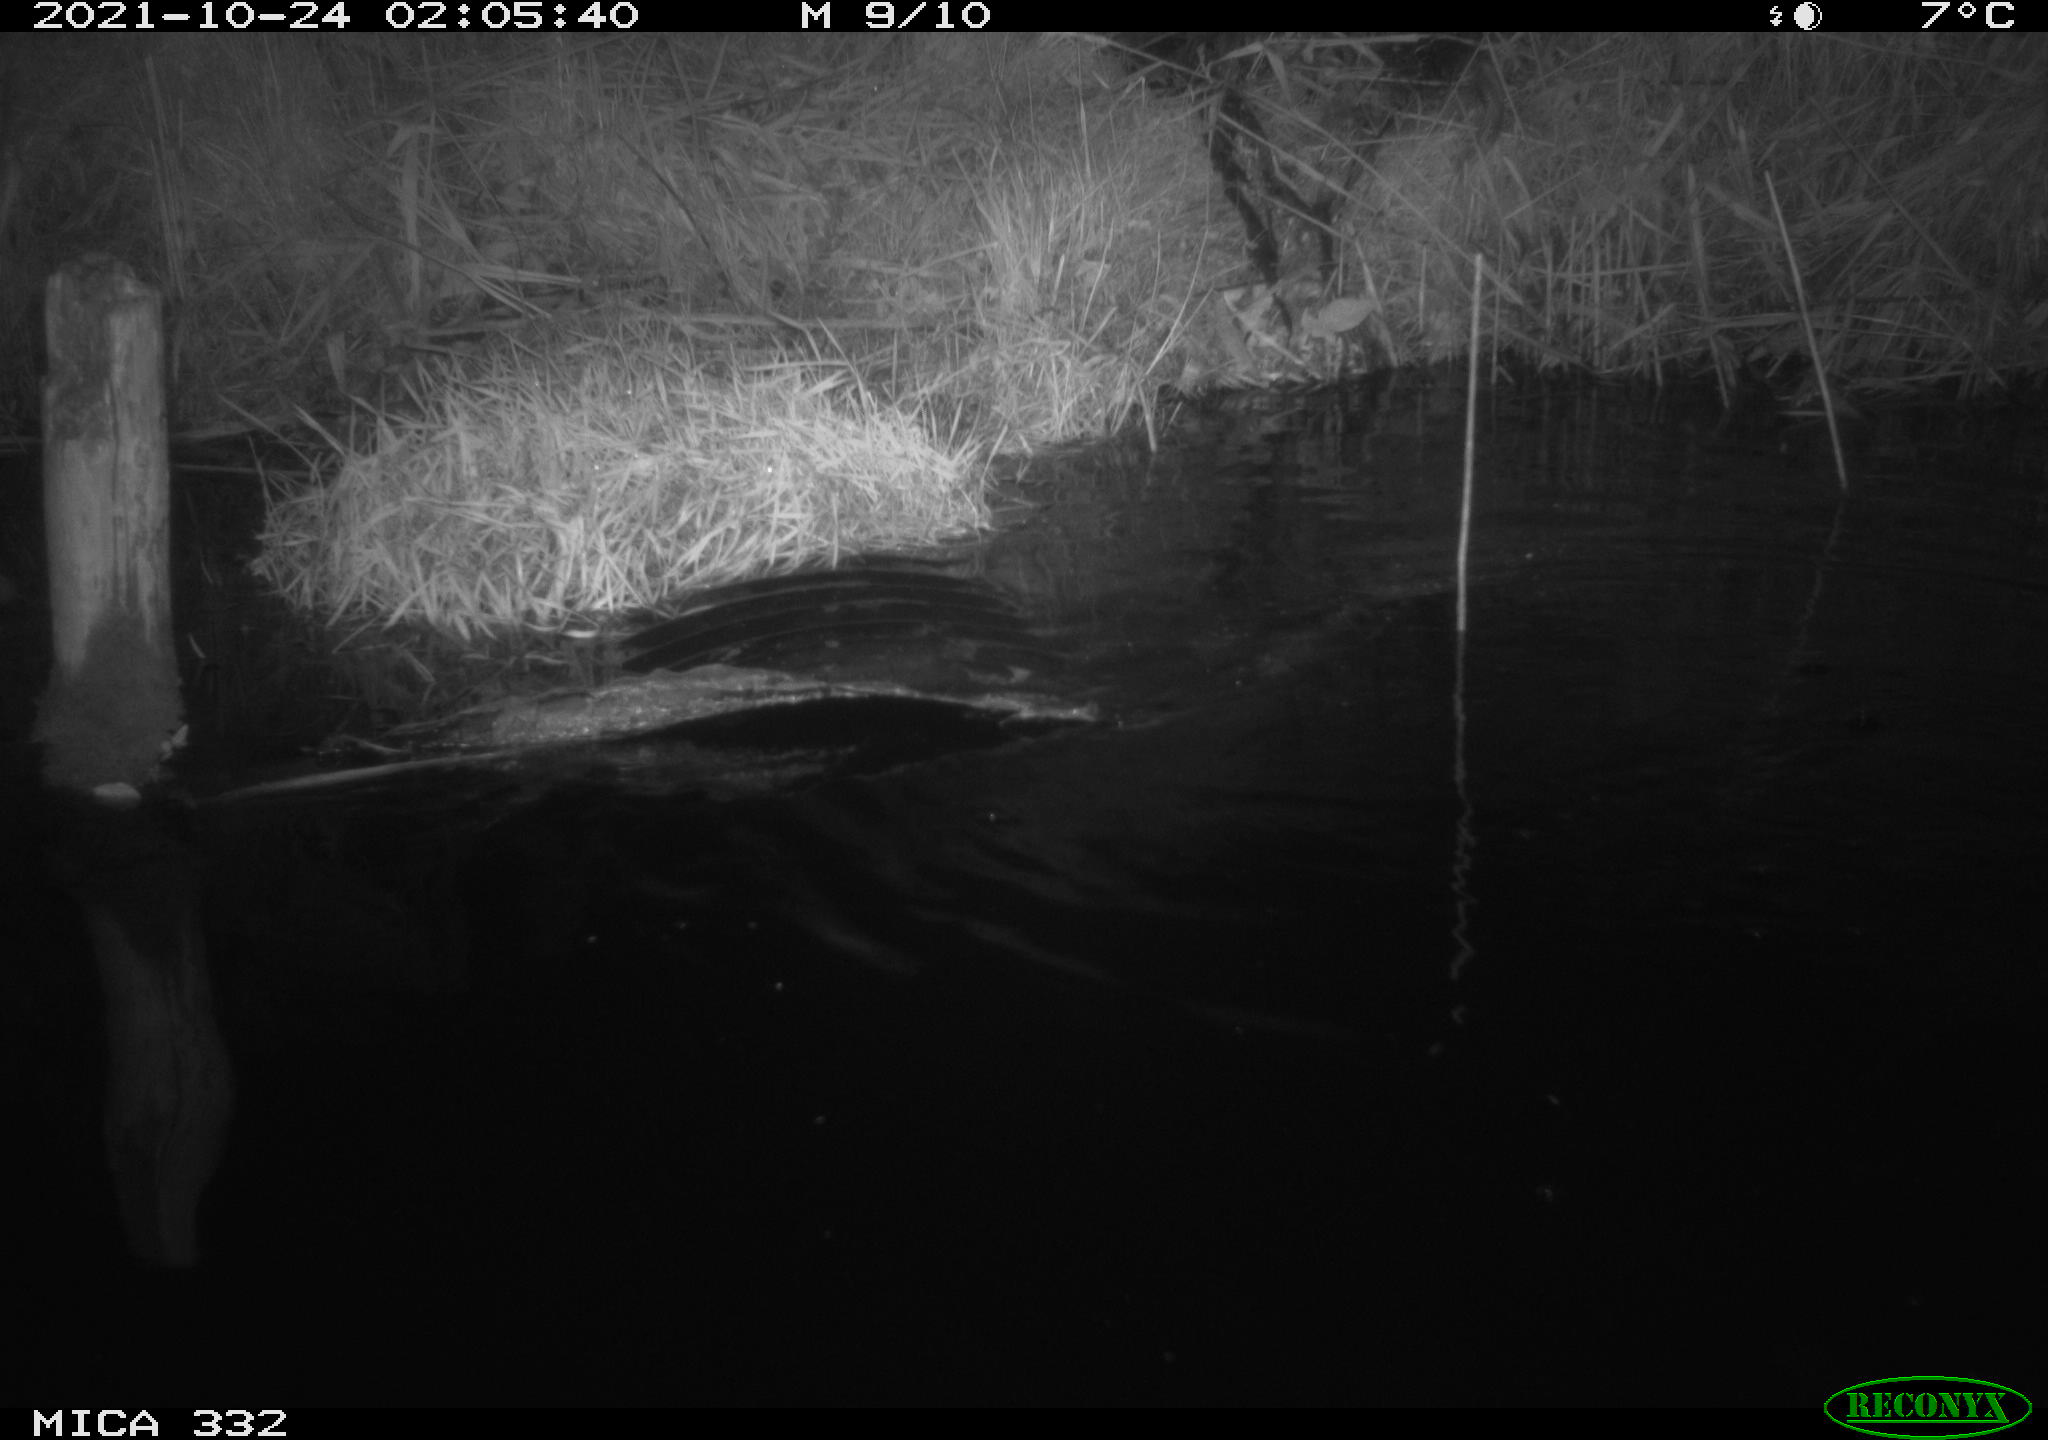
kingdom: Animalia
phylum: Chordata
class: Mammalia
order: Carnivora
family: Mustelidae
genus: Lutra
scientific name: Lutra lutra
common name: European otter
